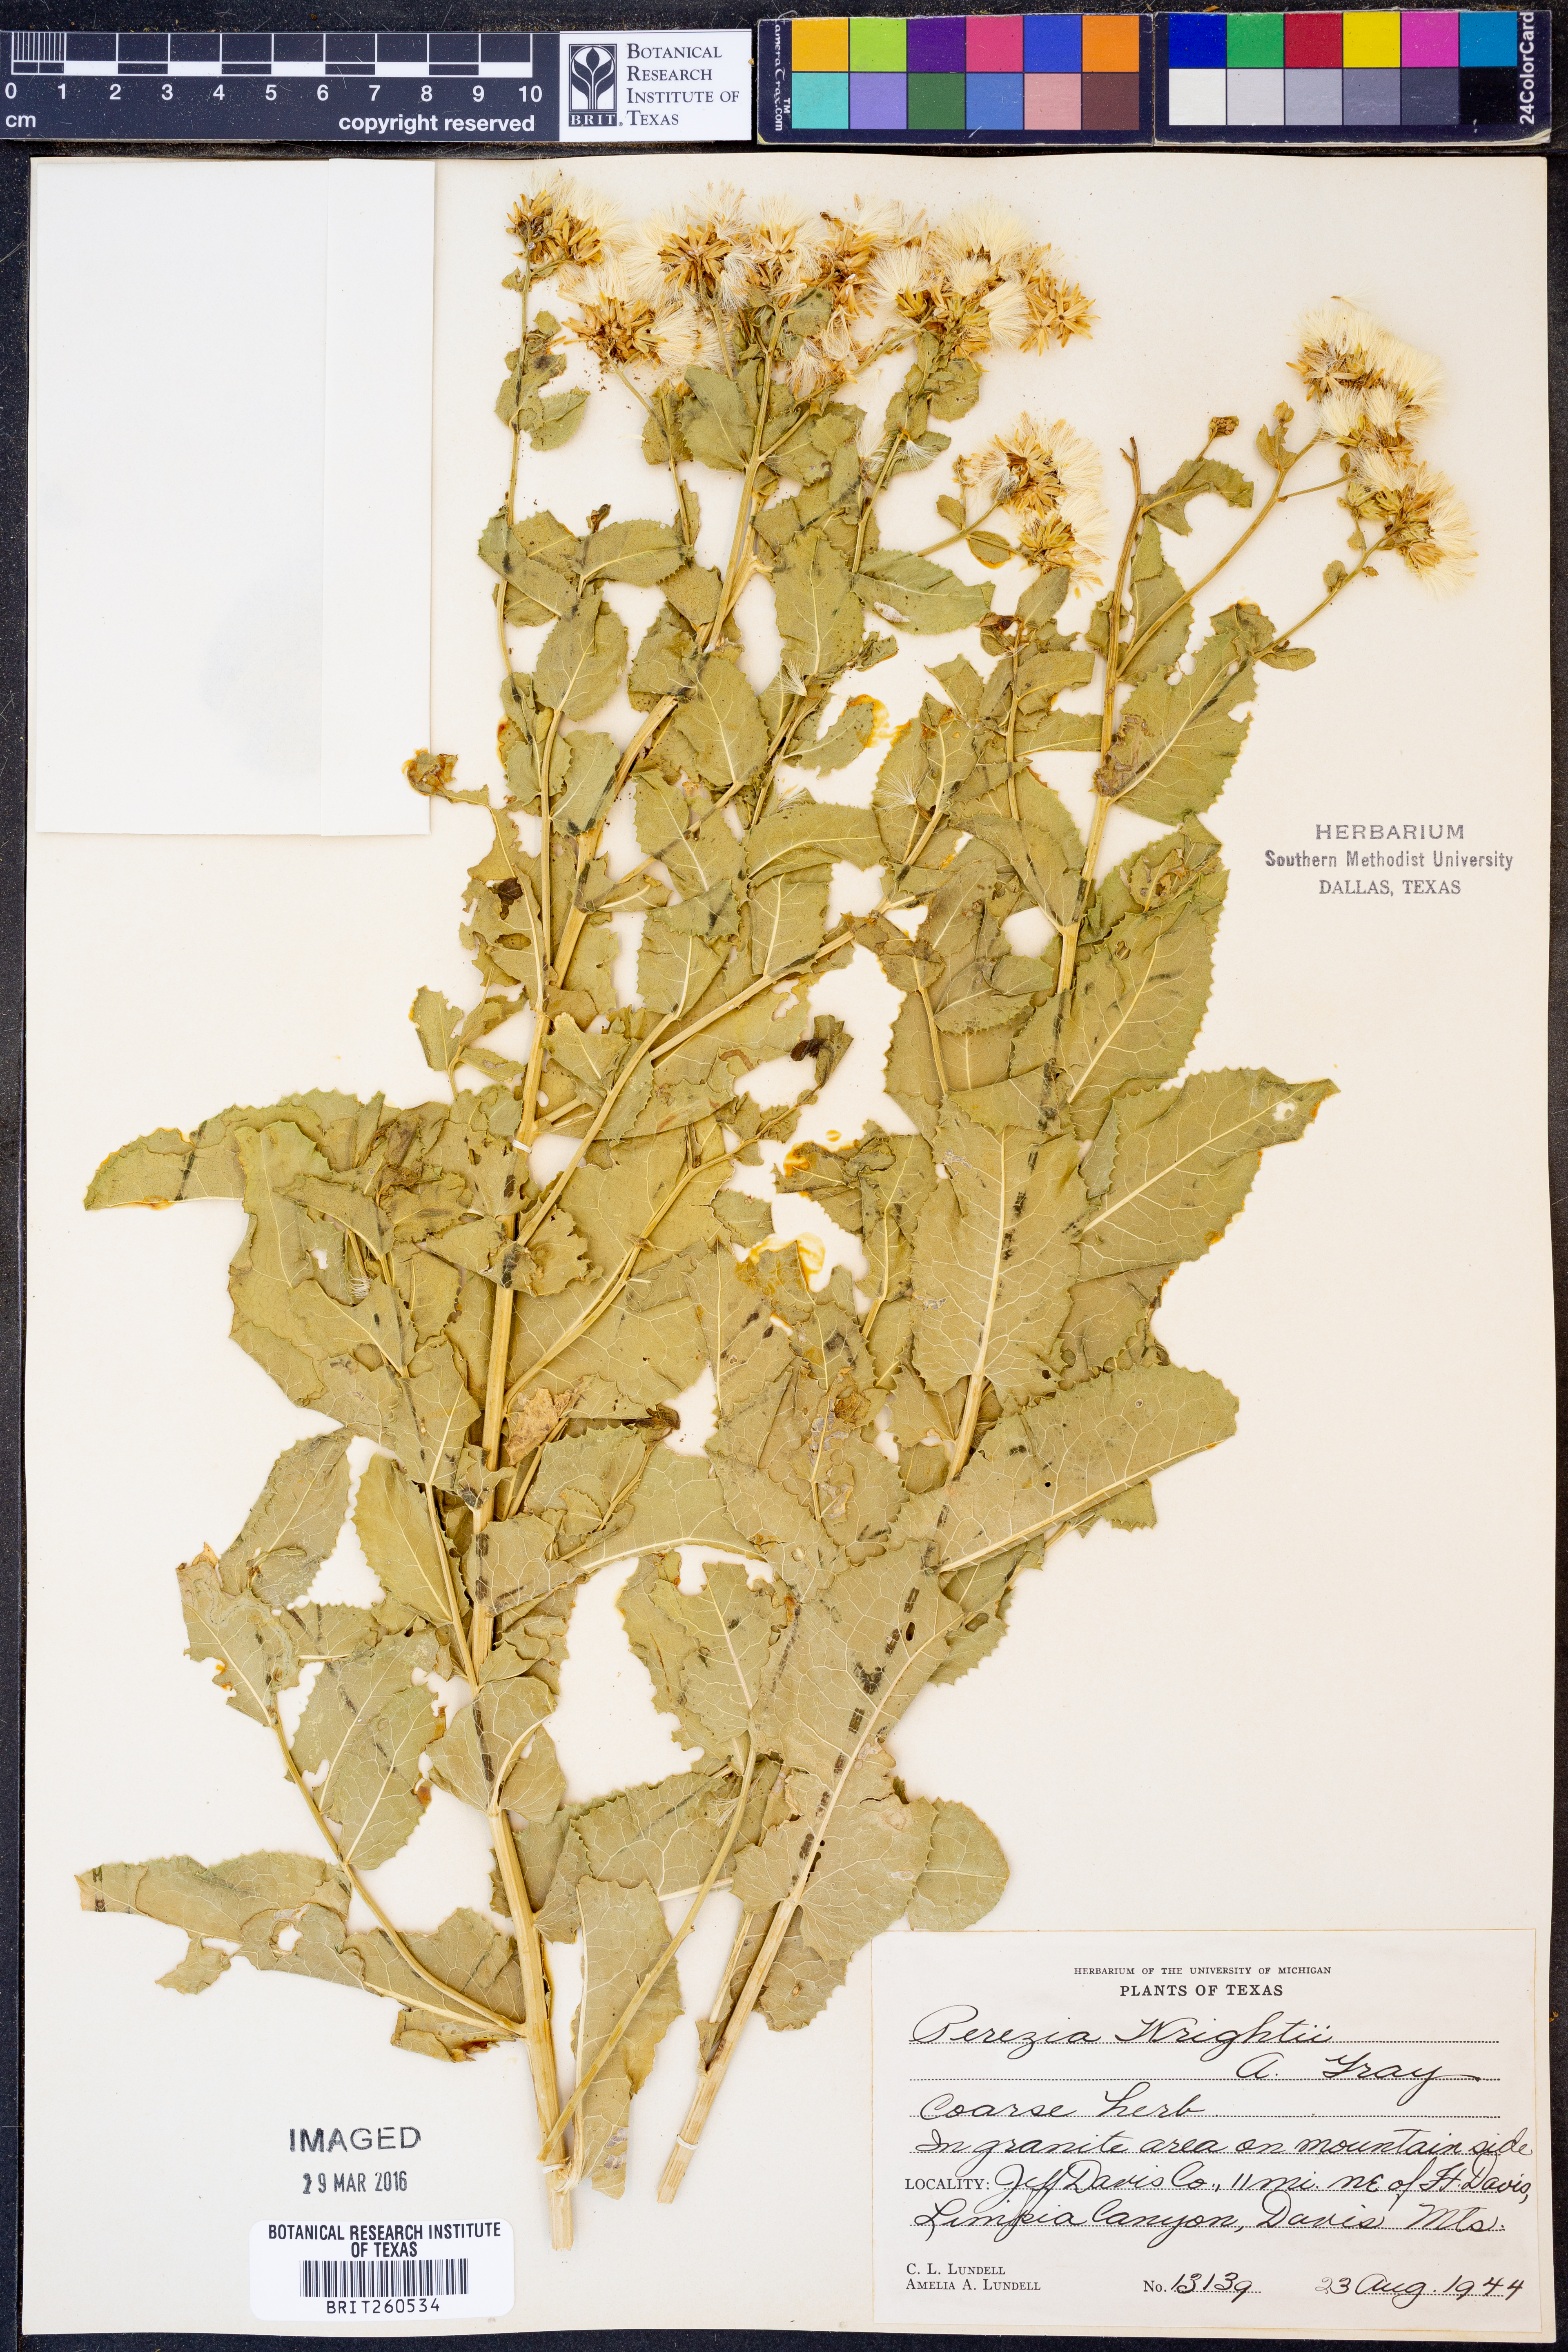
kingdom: Plantae
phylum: Tracheophyta
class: Magnoliopsida
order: Asterales
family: Asteraceae
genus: Acourtia
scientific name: Acourtia wrightii
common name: Brownfoot
